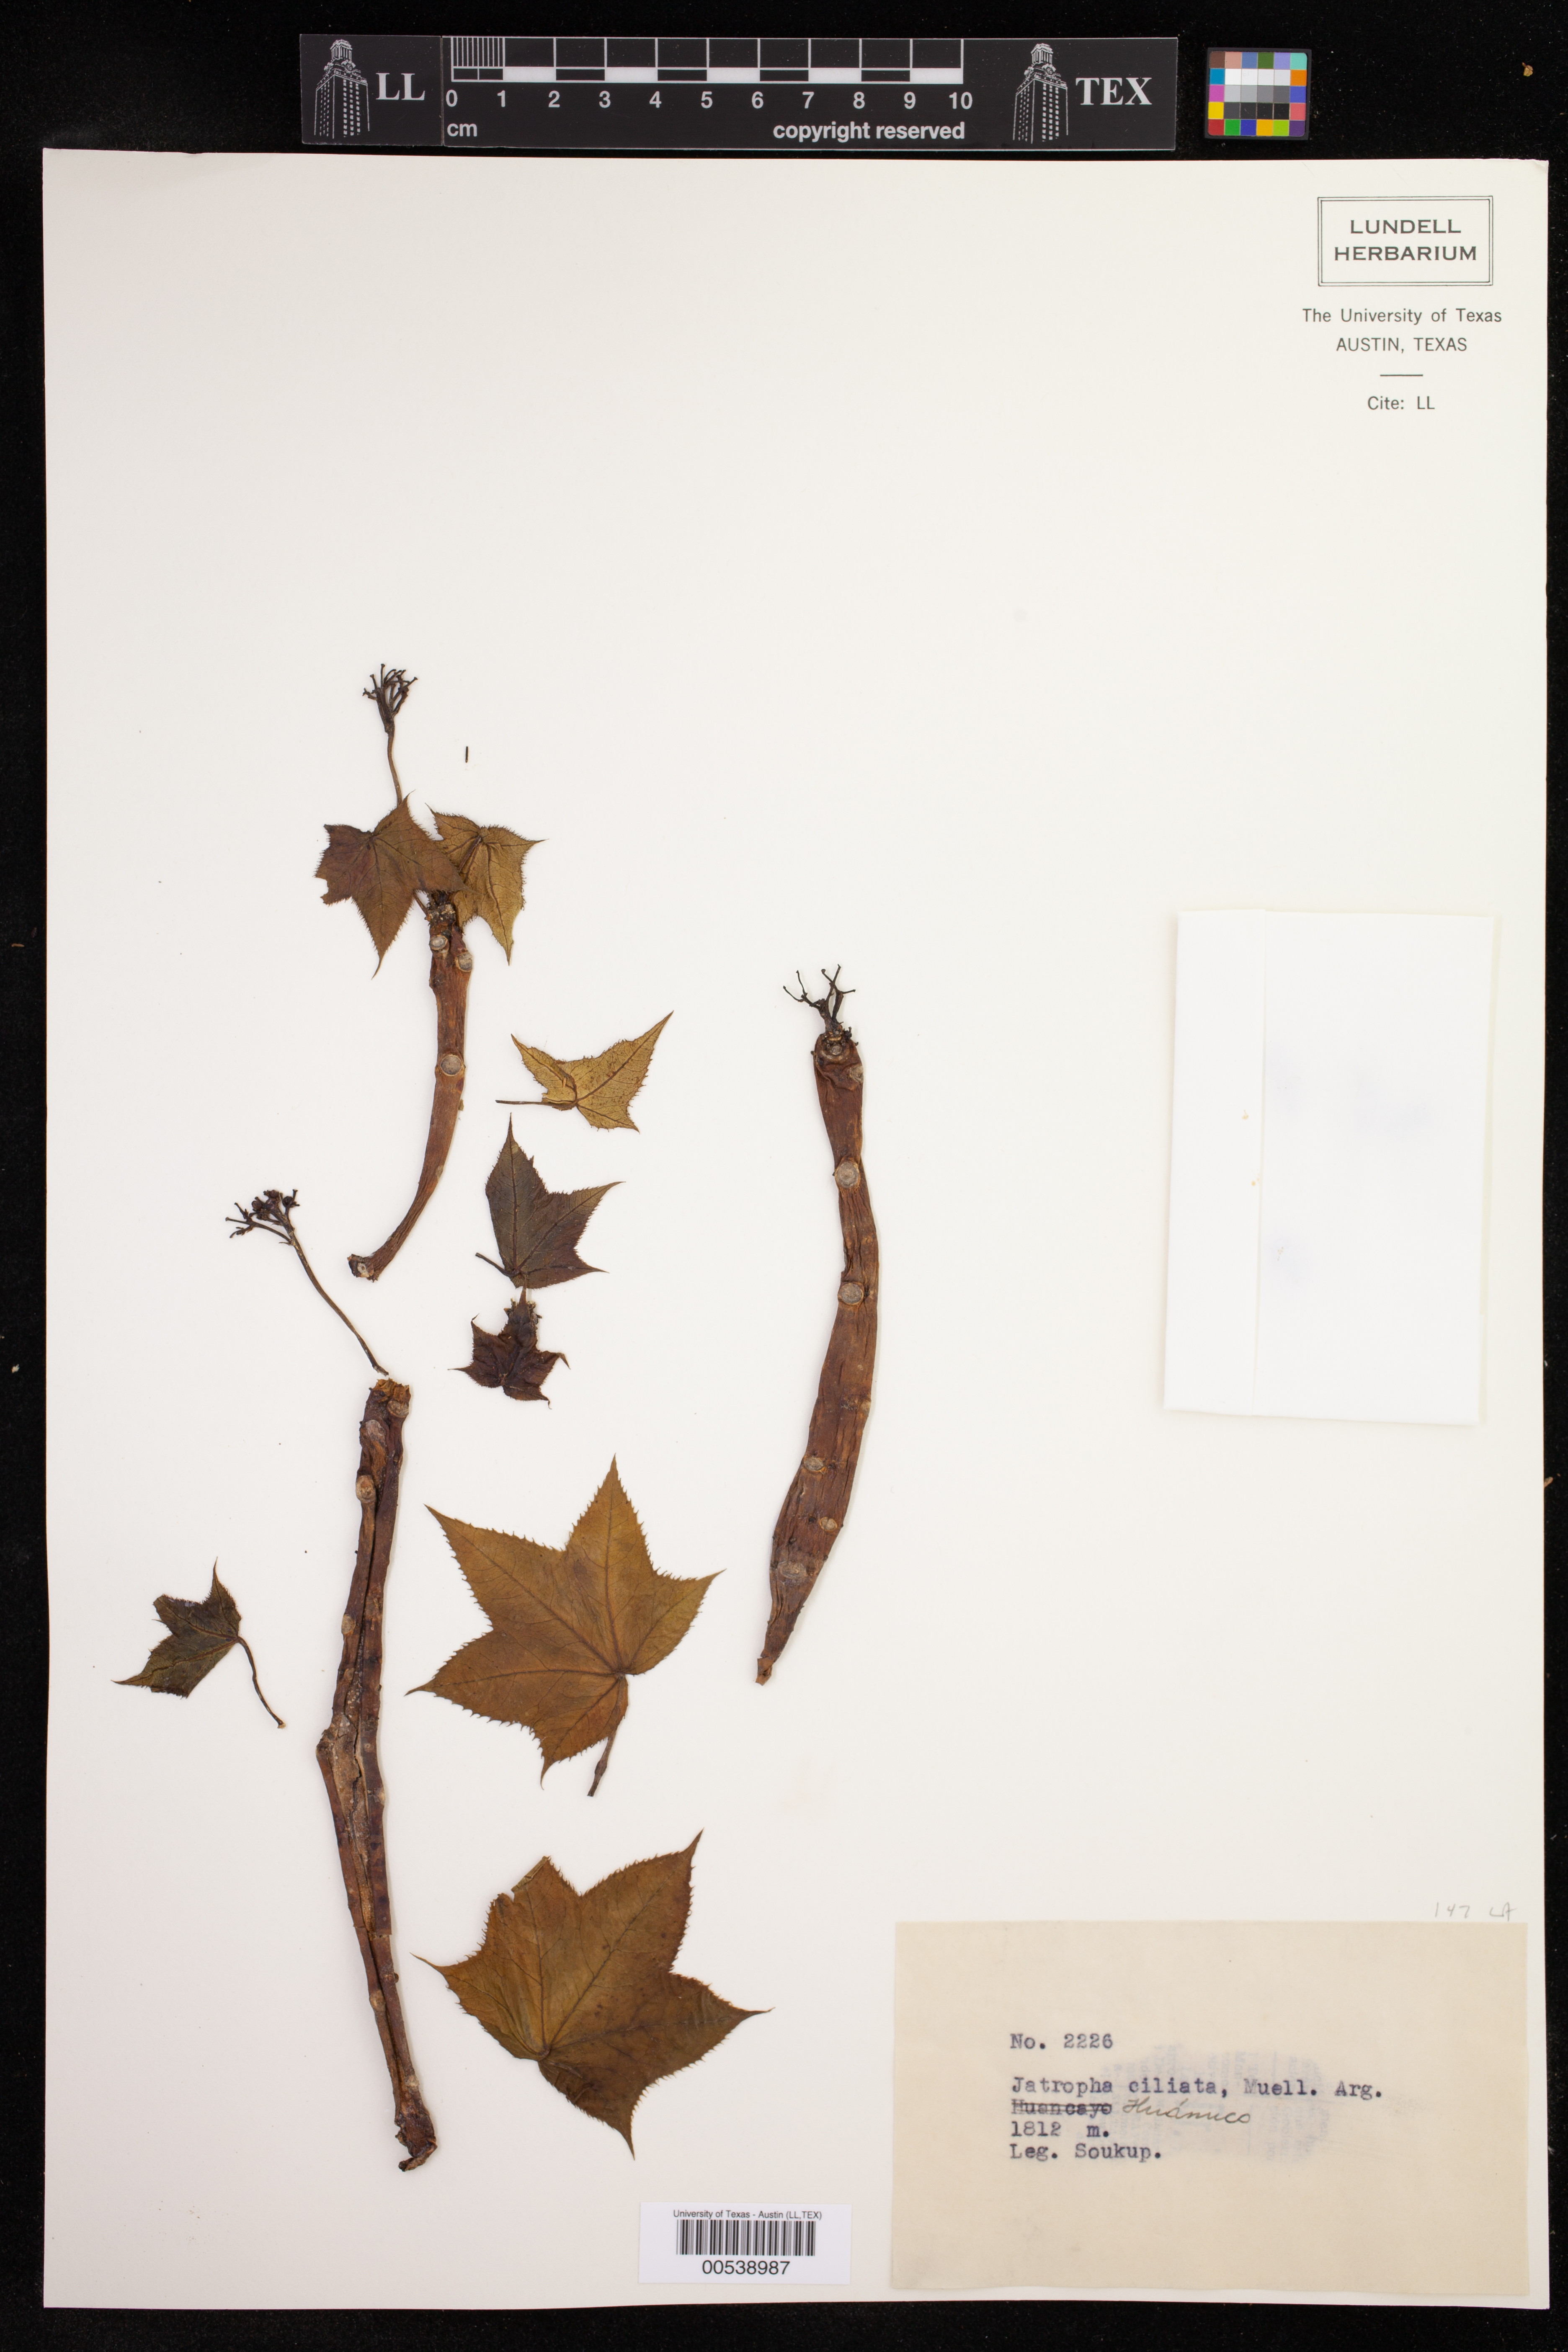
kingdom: Plantae
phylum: Tracheophyta
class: Magnoliopsida
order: Malpighiales
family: Euphorbiaceae
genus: Jatropha
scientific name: Jatropha ciliata
